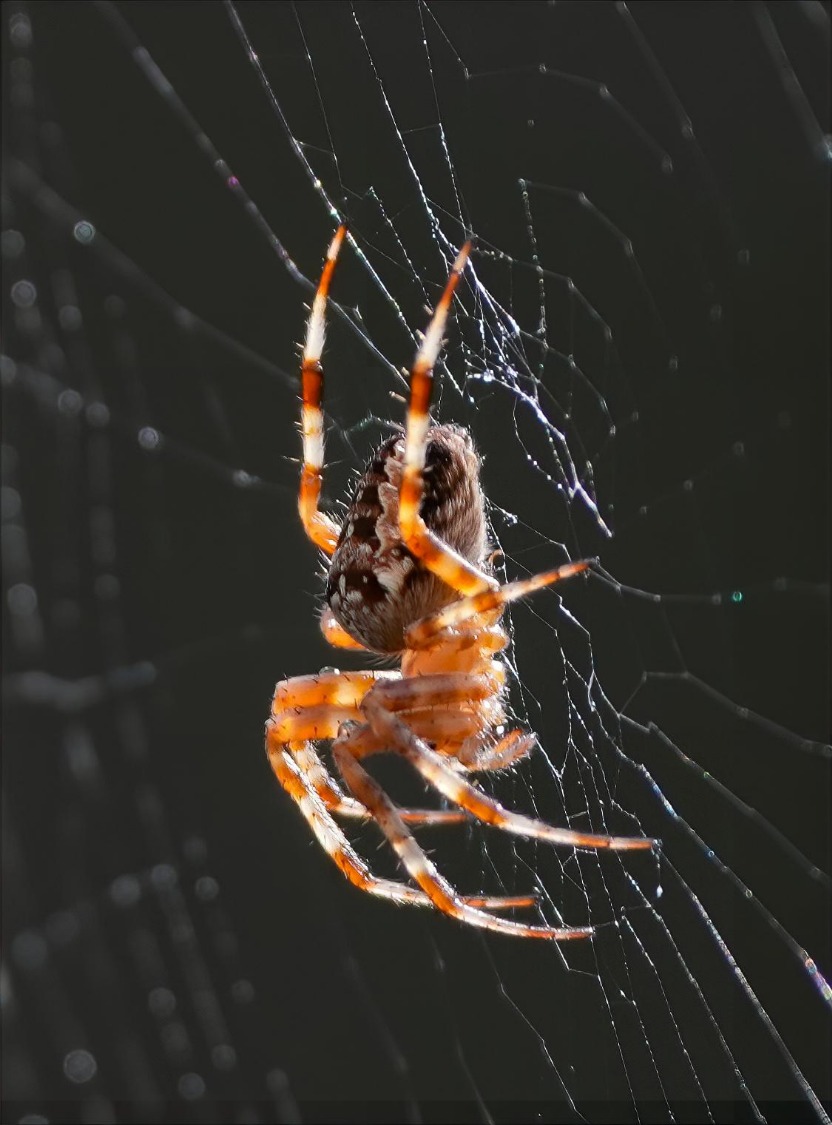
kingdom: Animalia
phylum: Arthropoda
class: Arachnida
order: Araneae
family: Araneidae
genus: Araneus
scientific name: Araneus diadematus
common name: Korsedderkop
